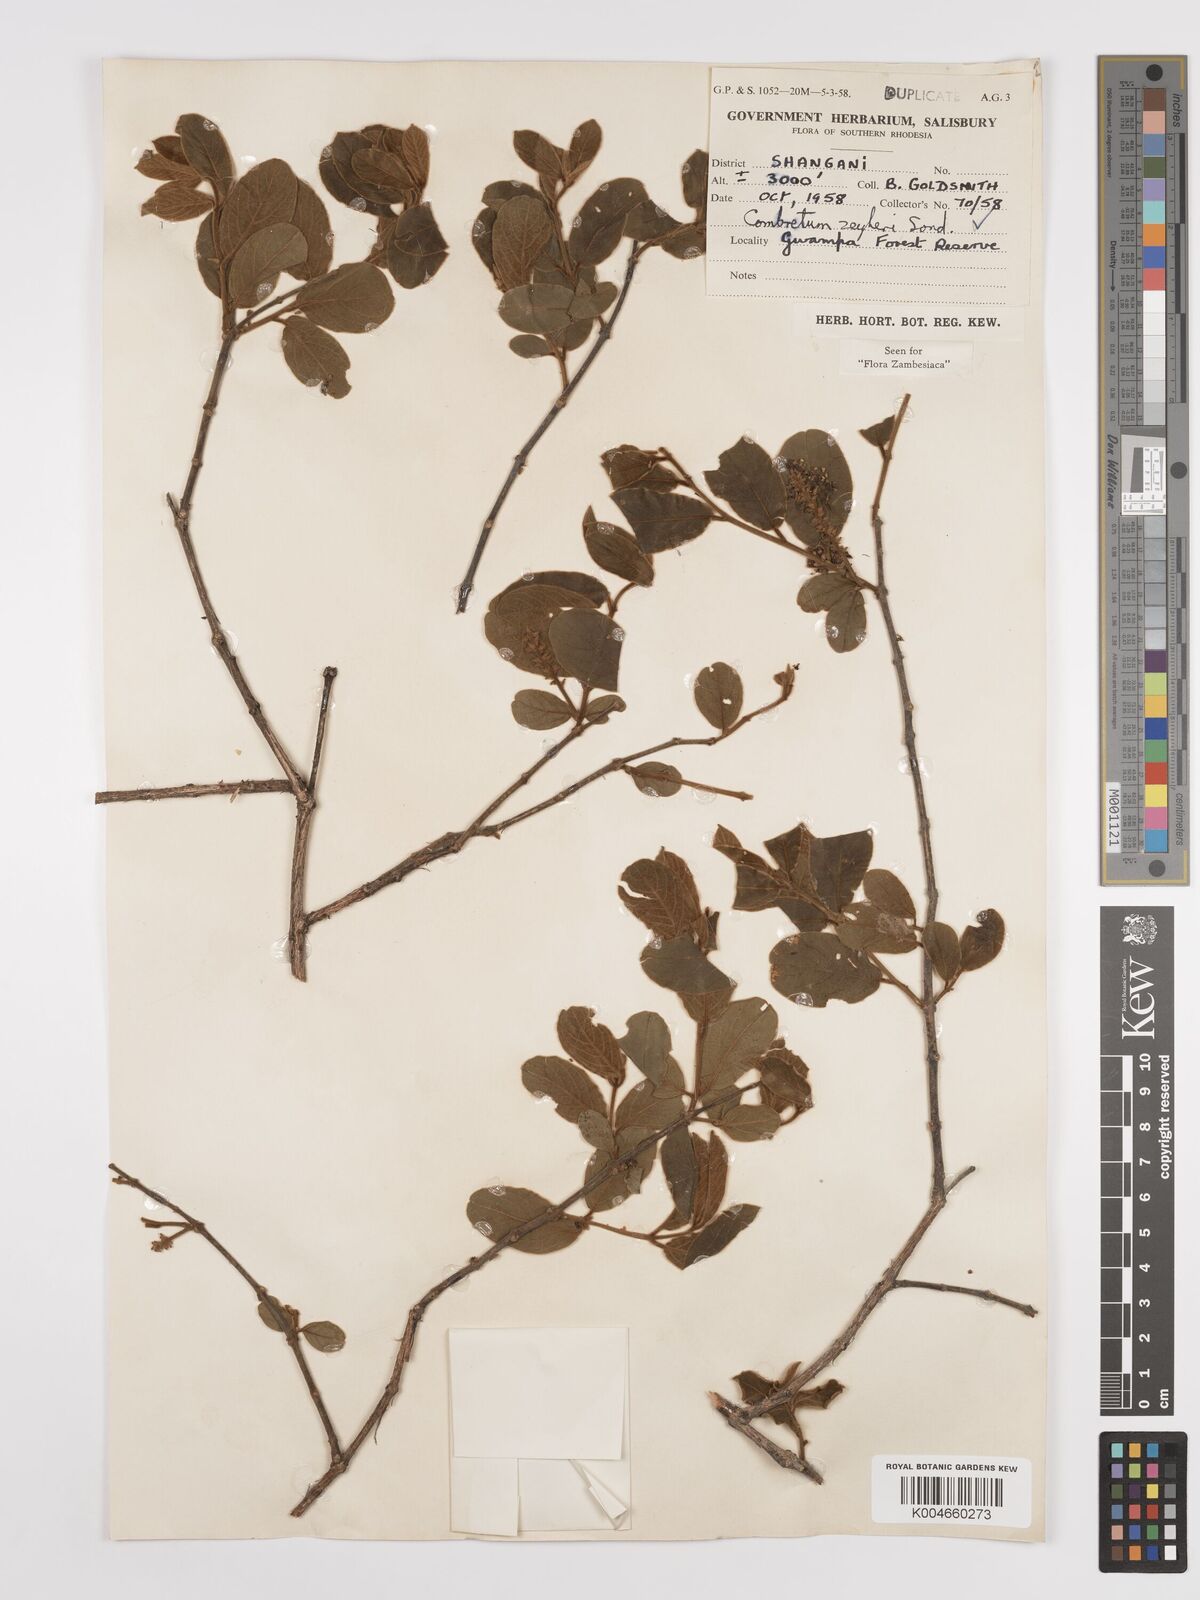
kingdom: Plantae
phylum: Tracheophyta
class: Magnoliopsida
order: Myrtales
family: Combretaceae
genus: Combretum
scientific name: Combretum zeyheri
